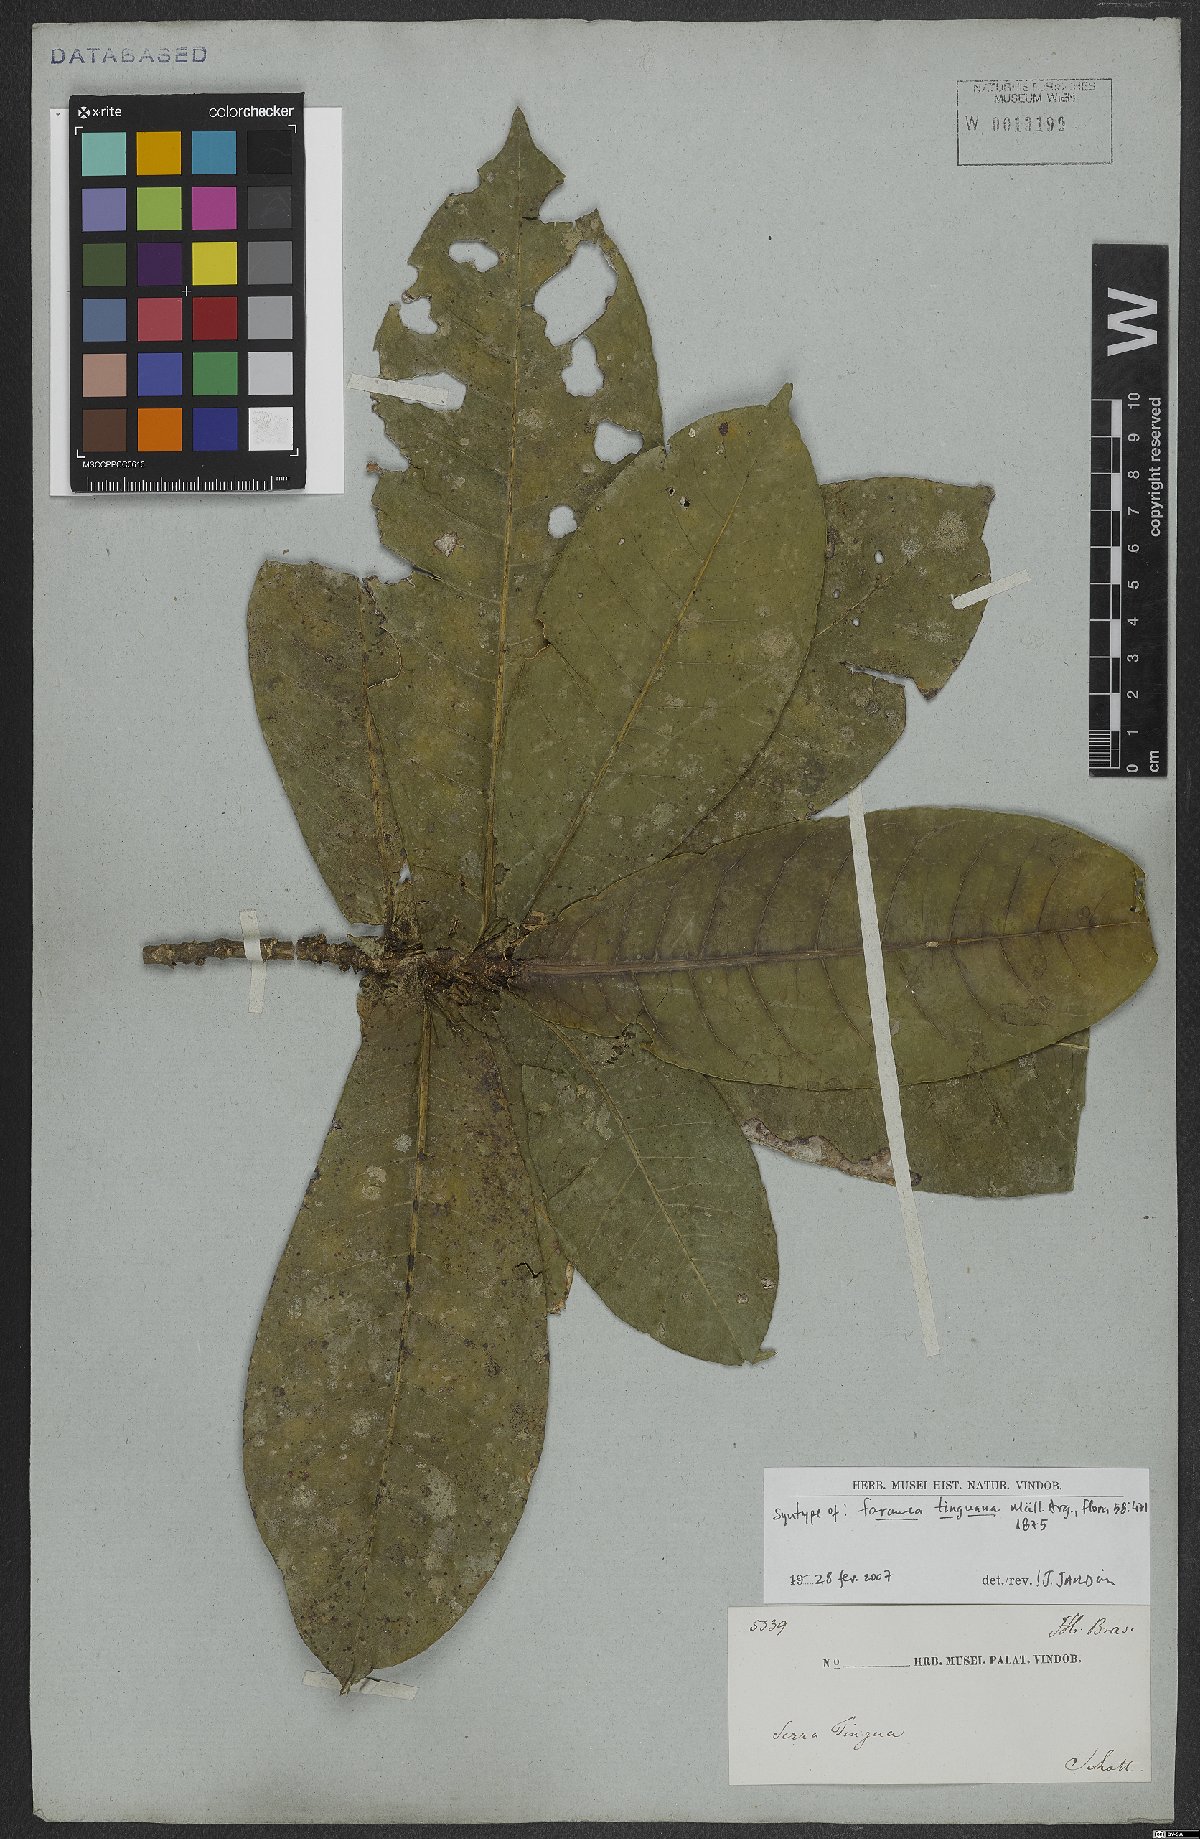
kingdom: Plantae
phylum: Tracheophyta
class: Magnoliopsida
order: Gentianales
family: Rubiaceae
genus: Faramea
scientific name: Faramea tinguana
